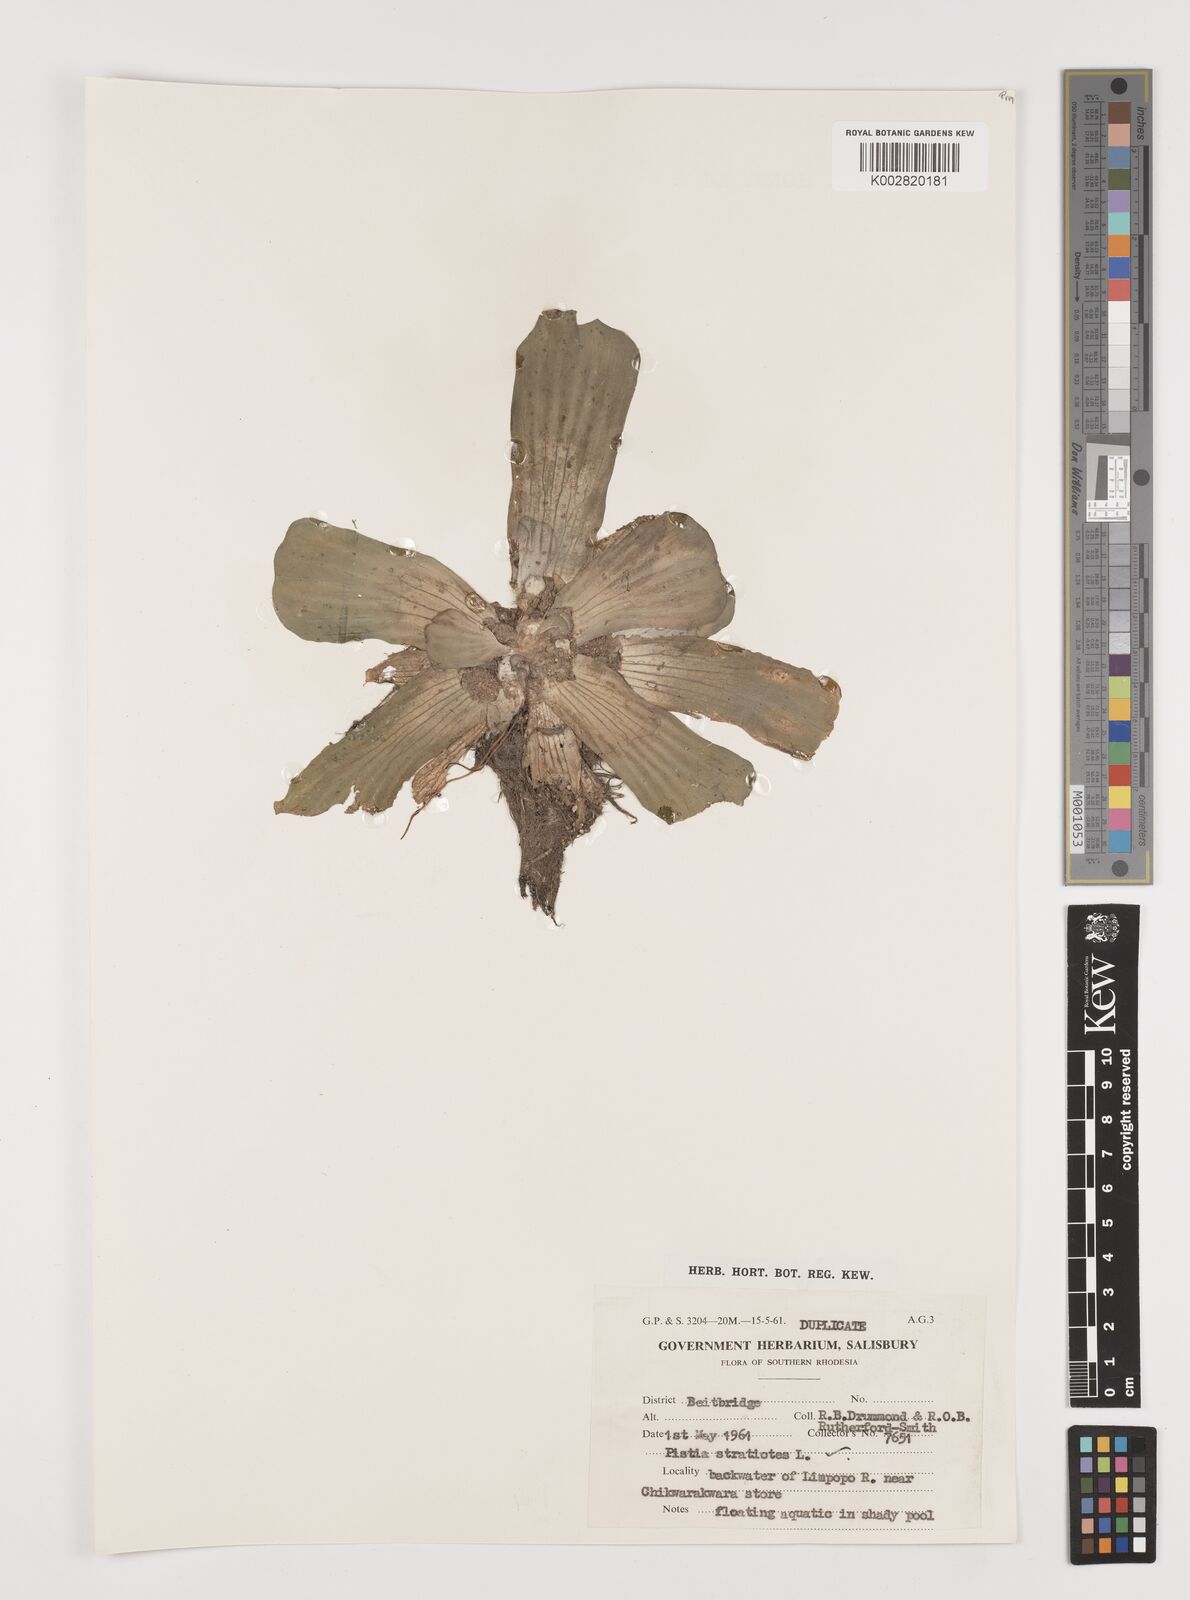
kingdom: Plantae
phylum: Tracheophyta
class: Liliopsida
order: Alismatales
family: Araceae
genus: Pistia
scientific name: Pistia stratiotes
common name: Water lettuce
